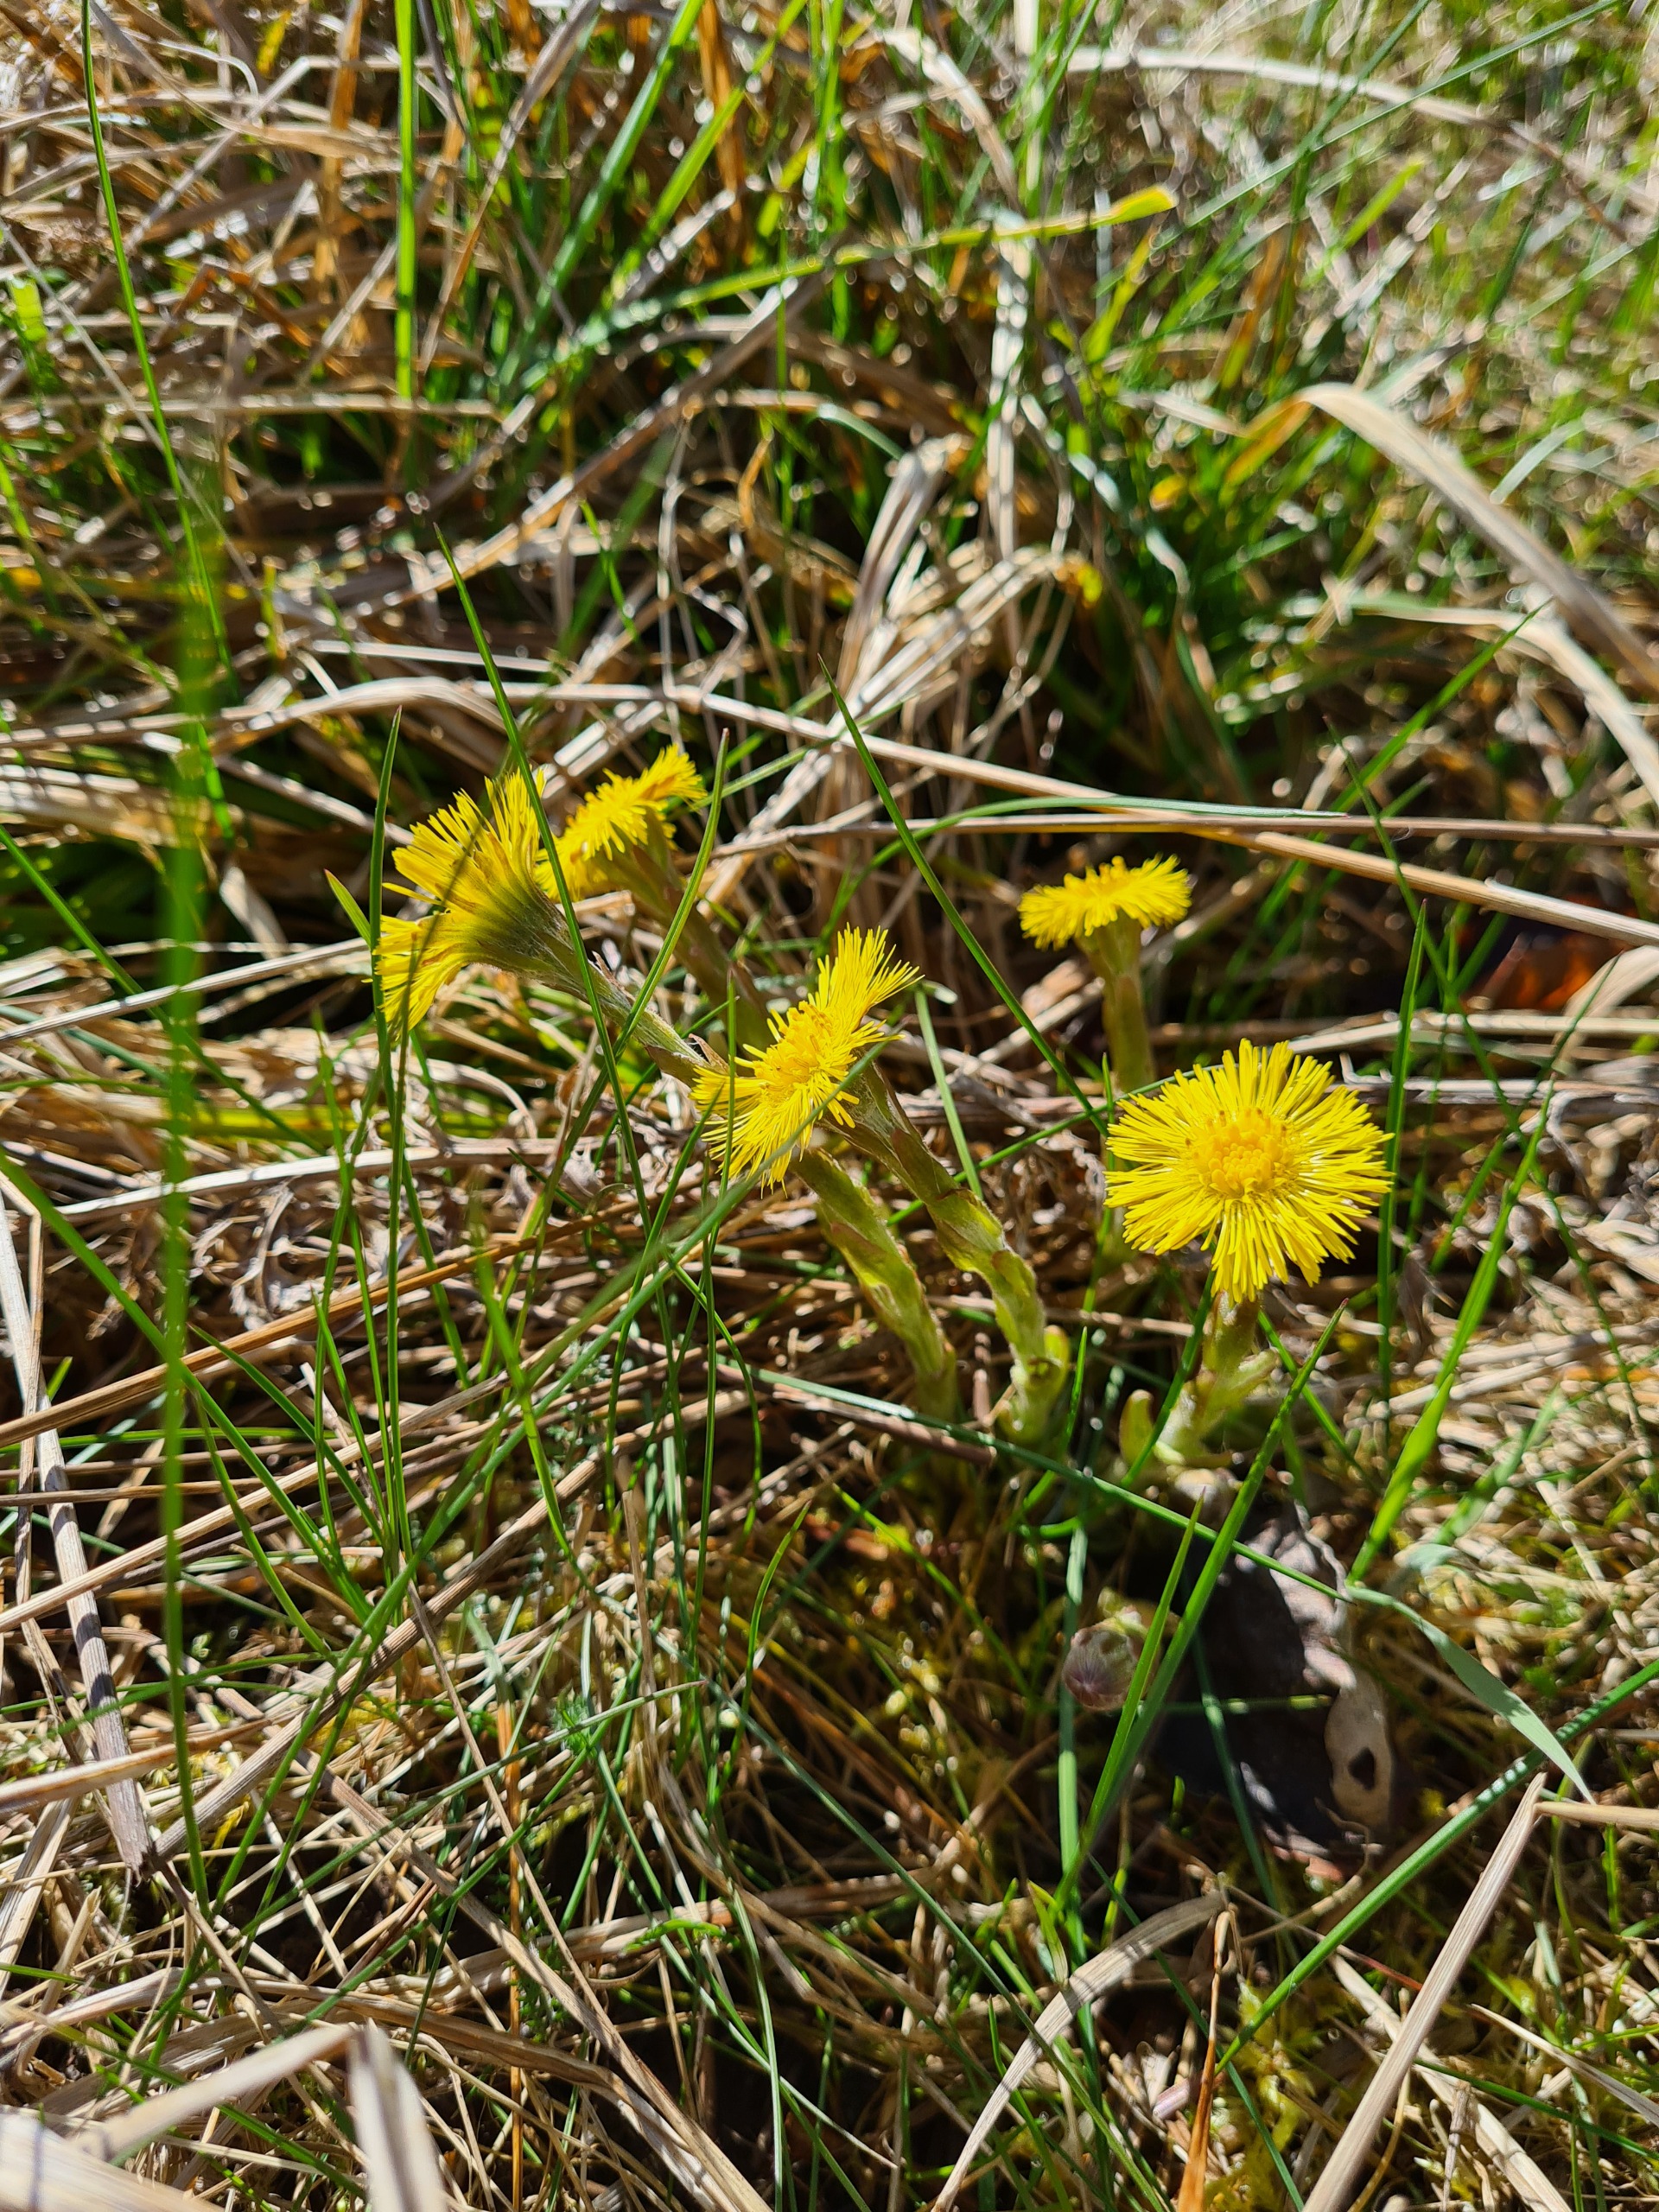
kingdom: Plantae
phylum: Tracheophyta
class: Magnoliopsida
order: Asterales
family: Asteraceae
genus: Tussilago
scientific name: Tussilago farfara
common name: Følfod
